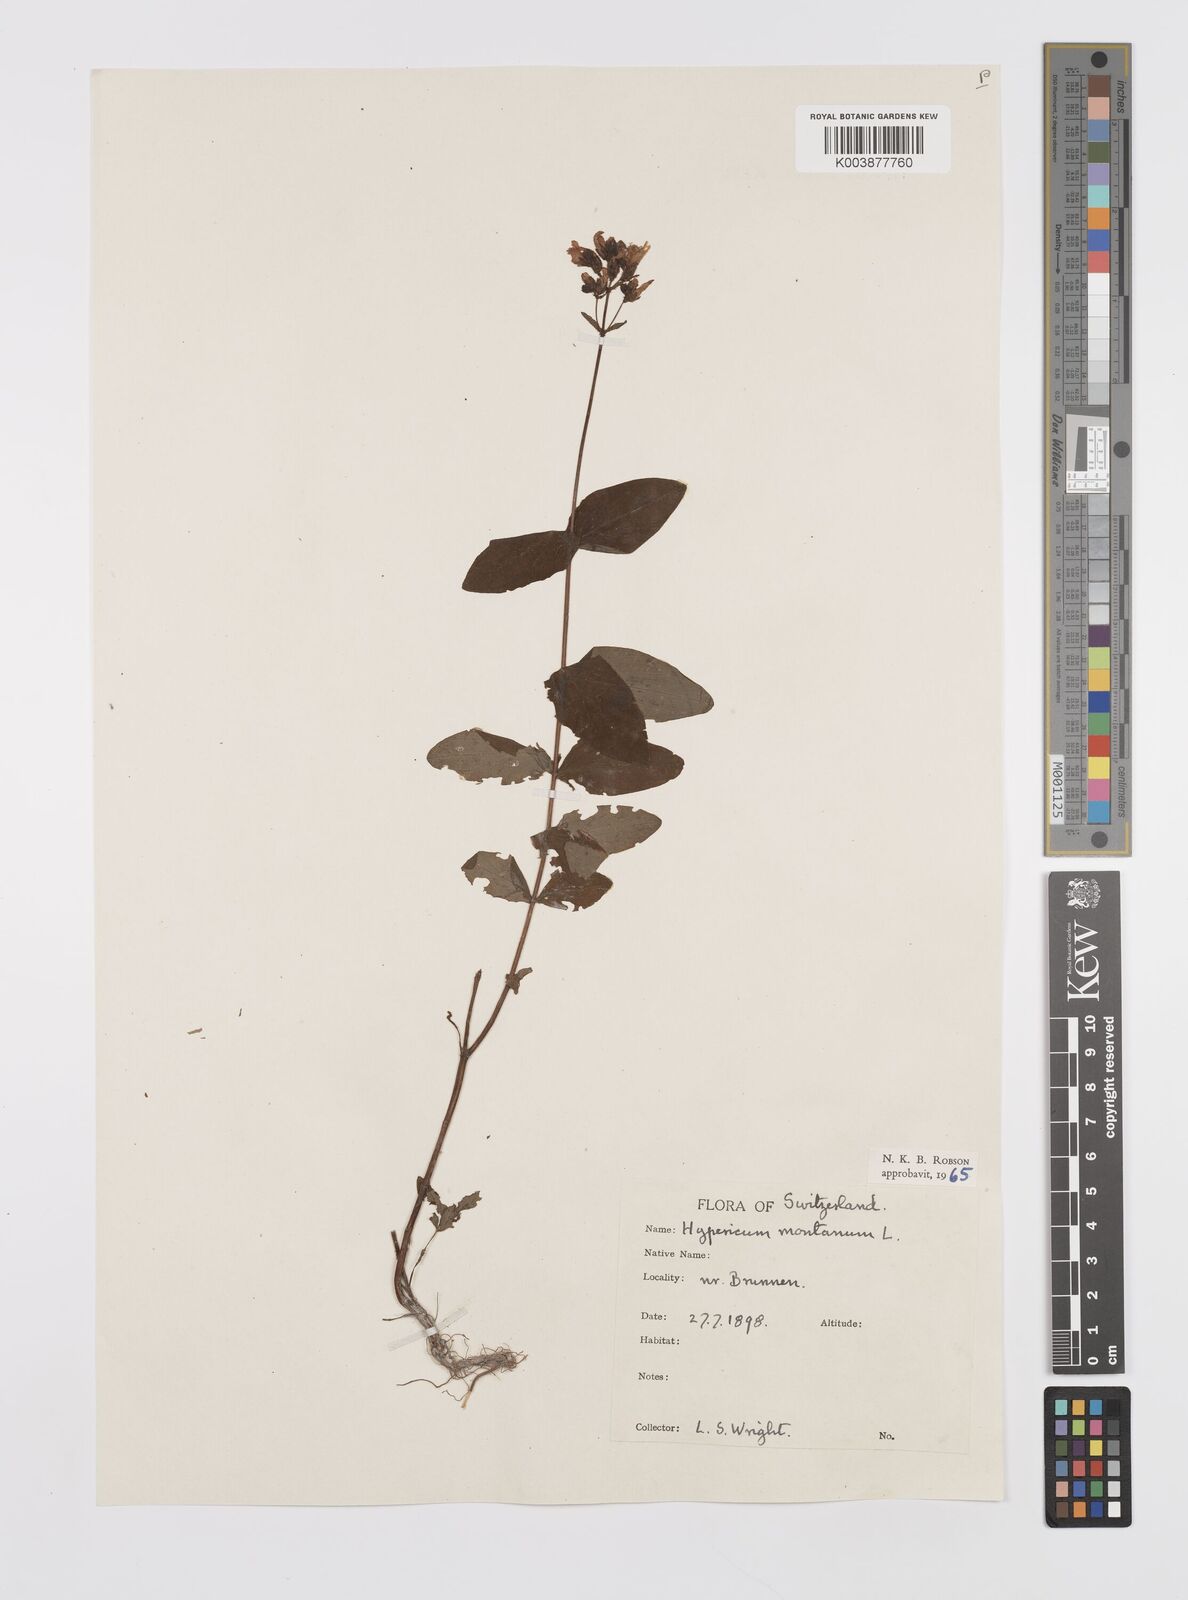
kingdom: Plantae
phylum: Tracheophyta
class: Magnoliopsida
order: Malpighiales
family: Hypericaceae
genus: Hypericum
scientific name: Hypericum montanum
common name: Pale st. john's-wort
